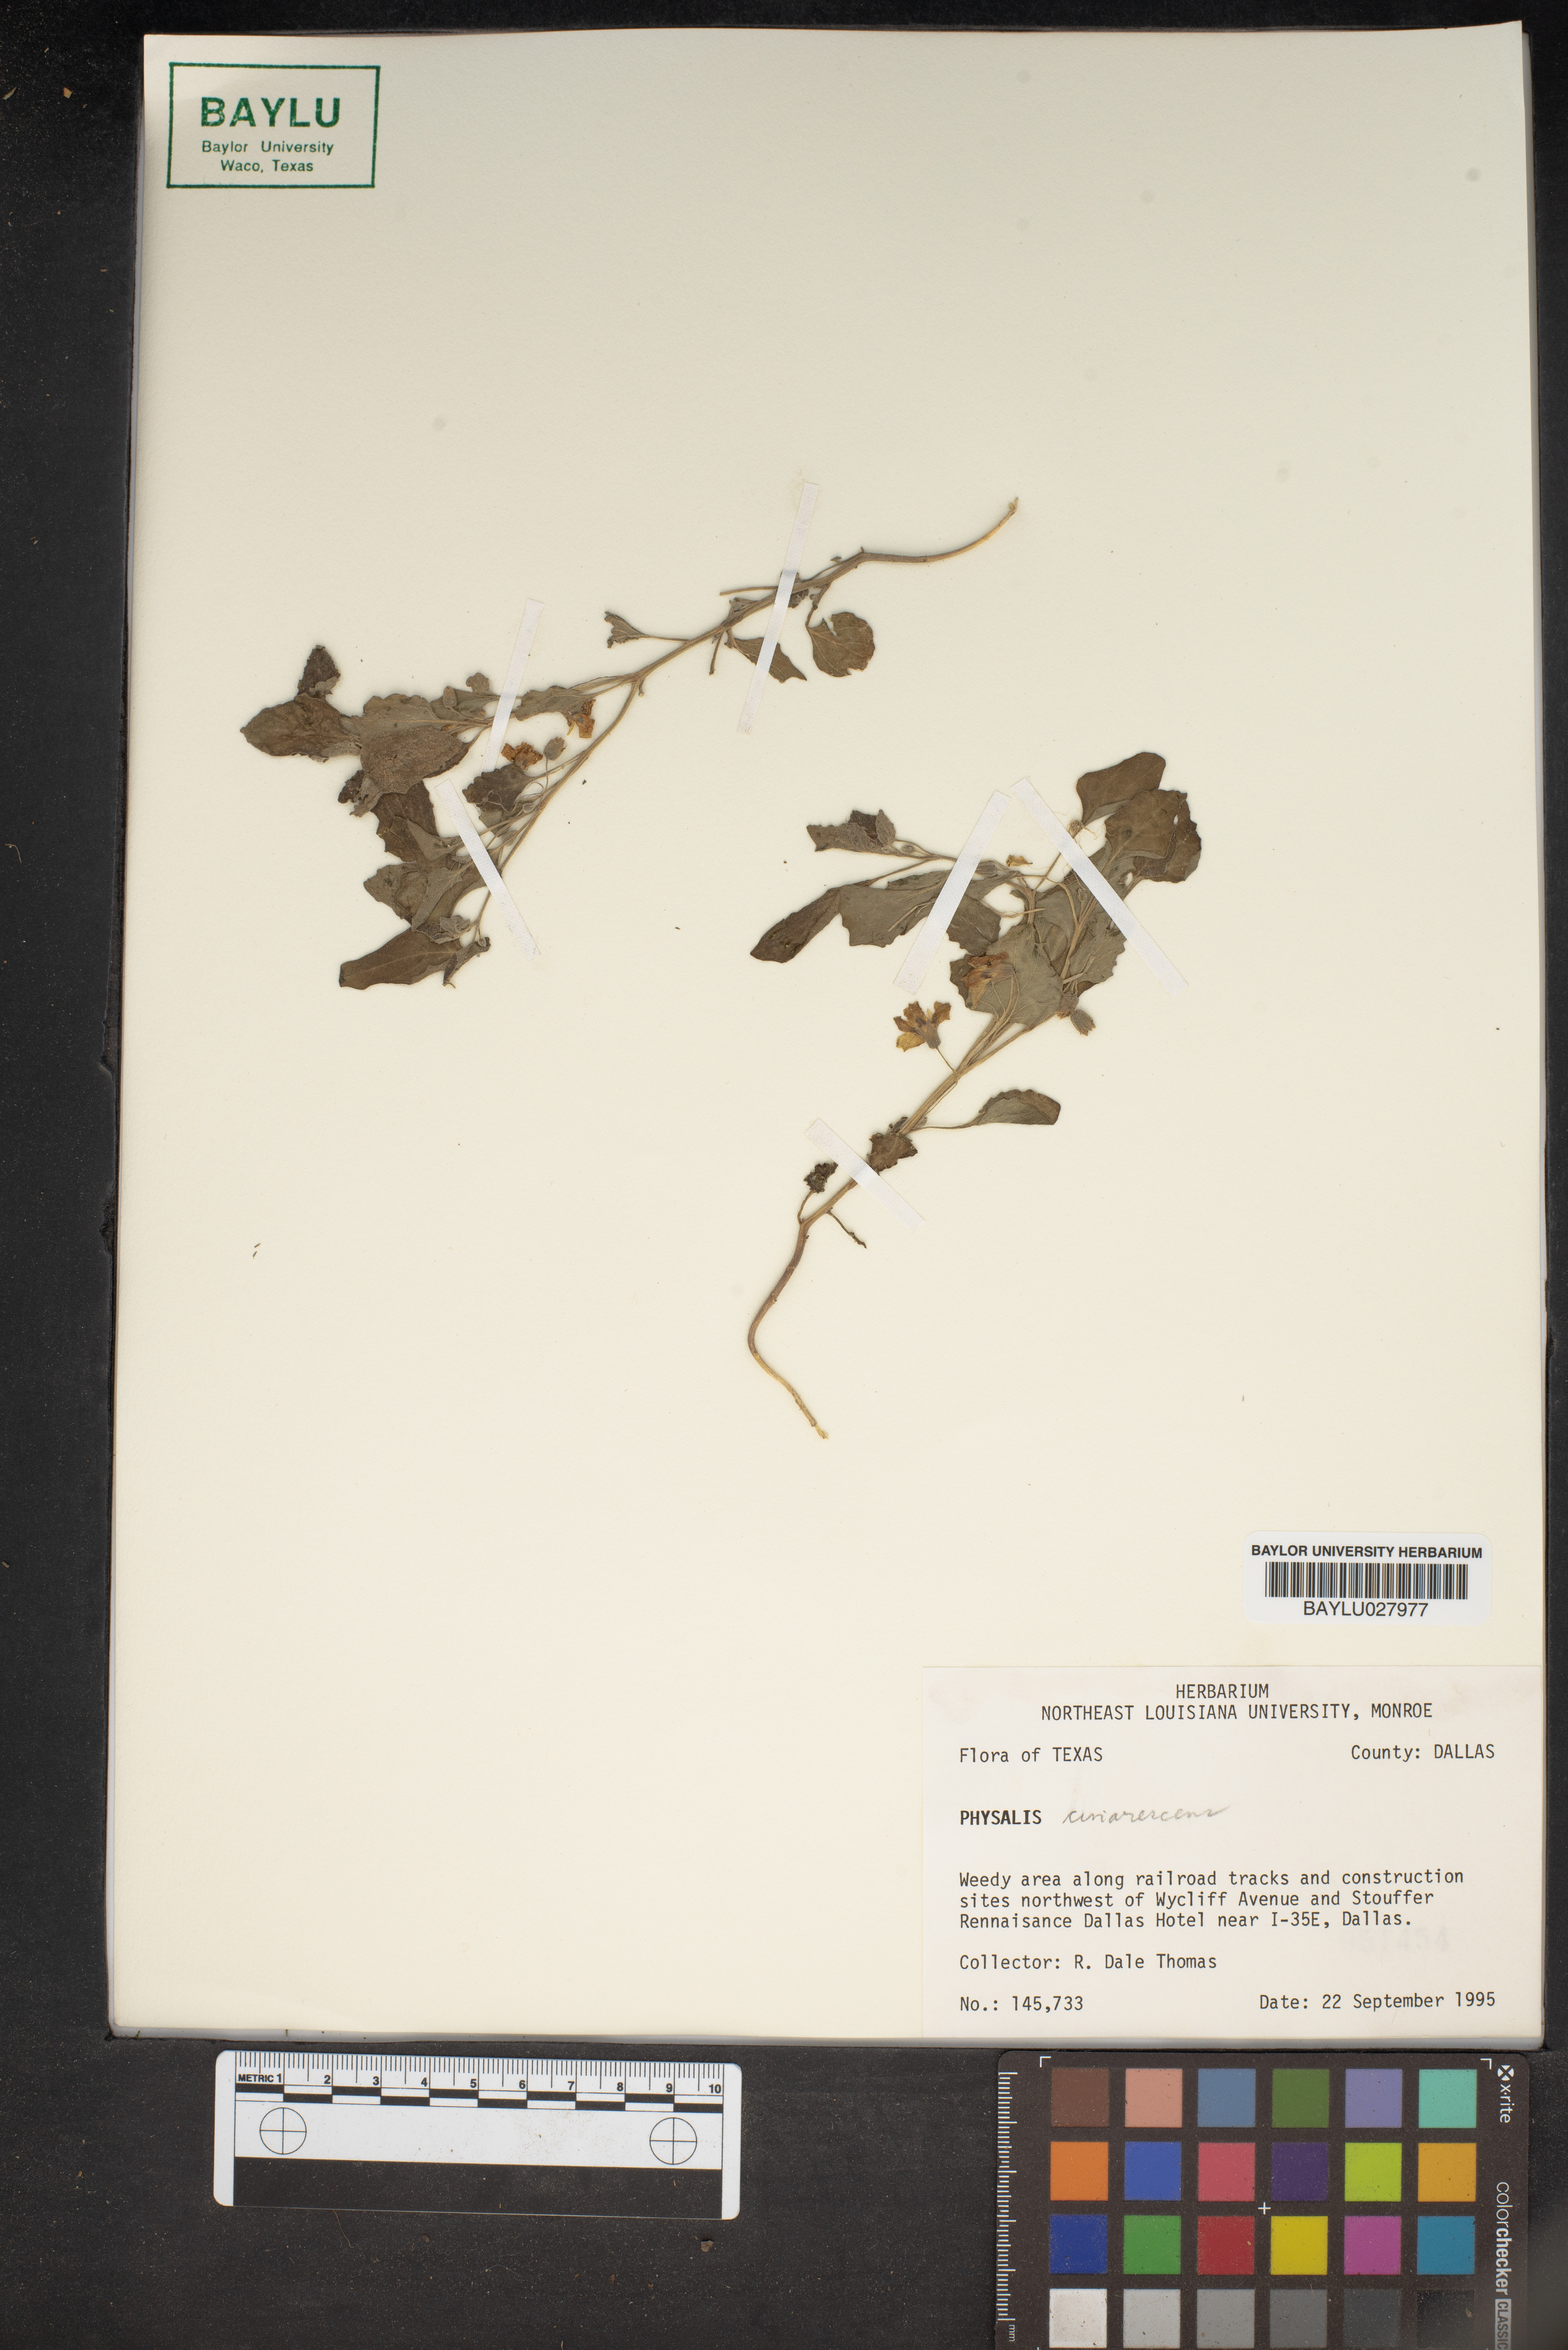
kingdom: Plantae
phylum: Tracheophyta
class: Magnoliopsida
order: Solanales
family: Solanaceae
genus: Physalis
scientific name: Physalis cinerascens
